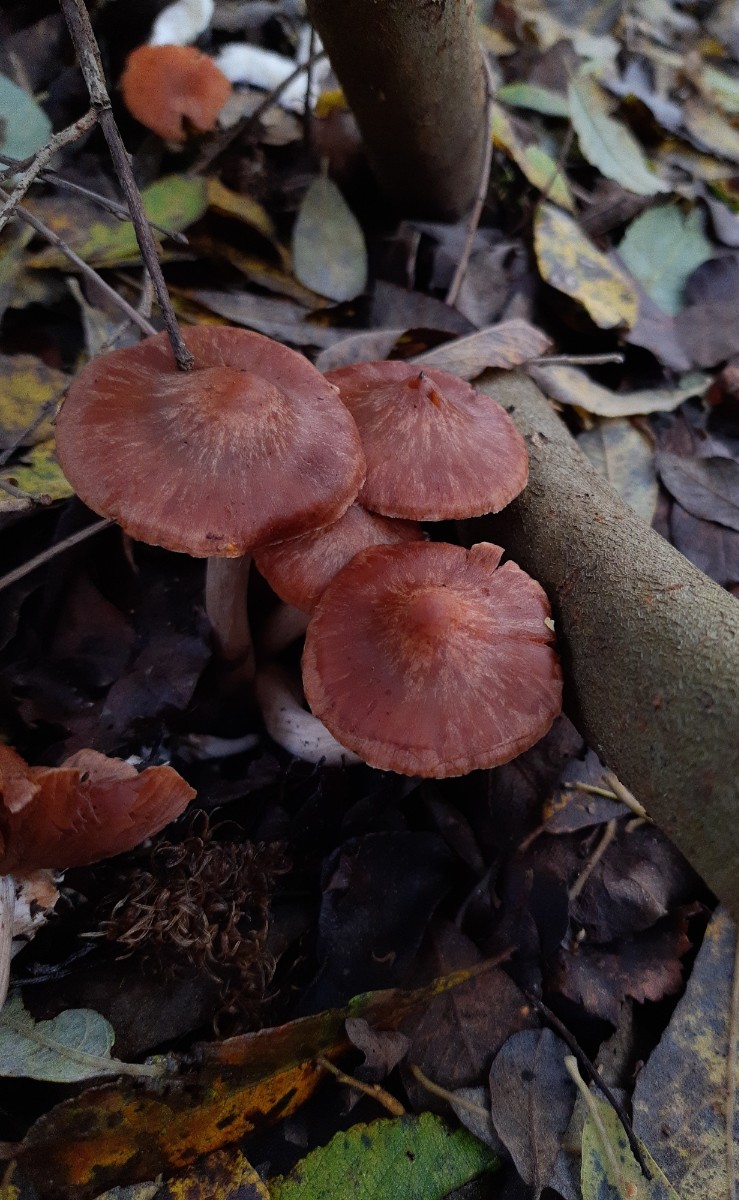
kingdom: Fungi
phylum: Basidiomycota
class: Agaricomycetes
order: Agaricales
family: Cortinariaceae
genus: Cortinarius
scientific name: Cortinarius saturninus
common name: brunviolet slørhat
